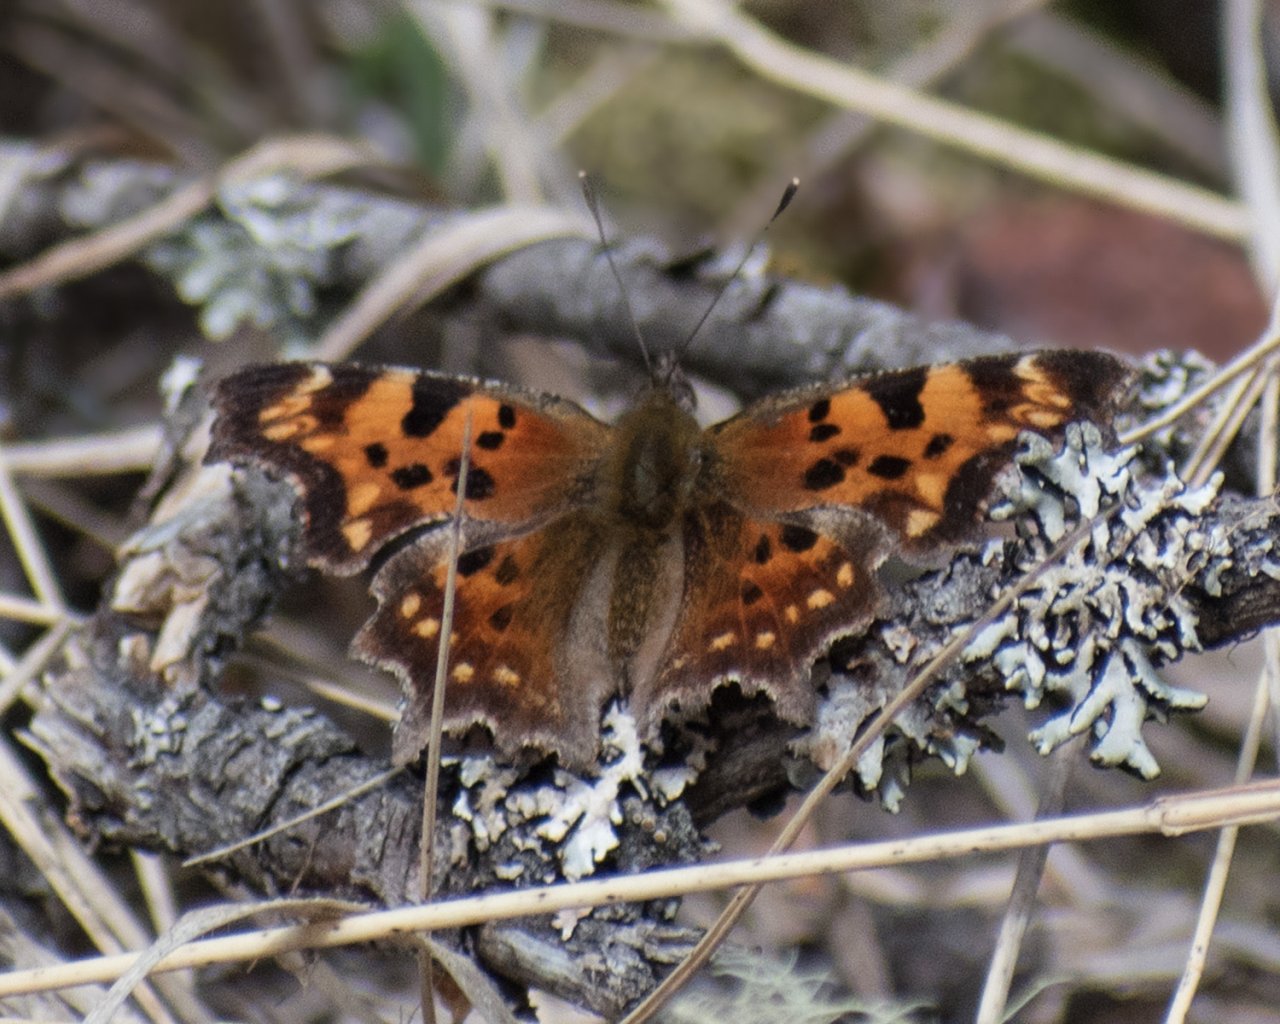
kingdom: Animalia
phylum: Arthropoda
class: Insecta
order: Lepidoptera
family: Nymphalidae
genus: Polygonia
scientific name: Polygonia faunus
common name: Green Comma
